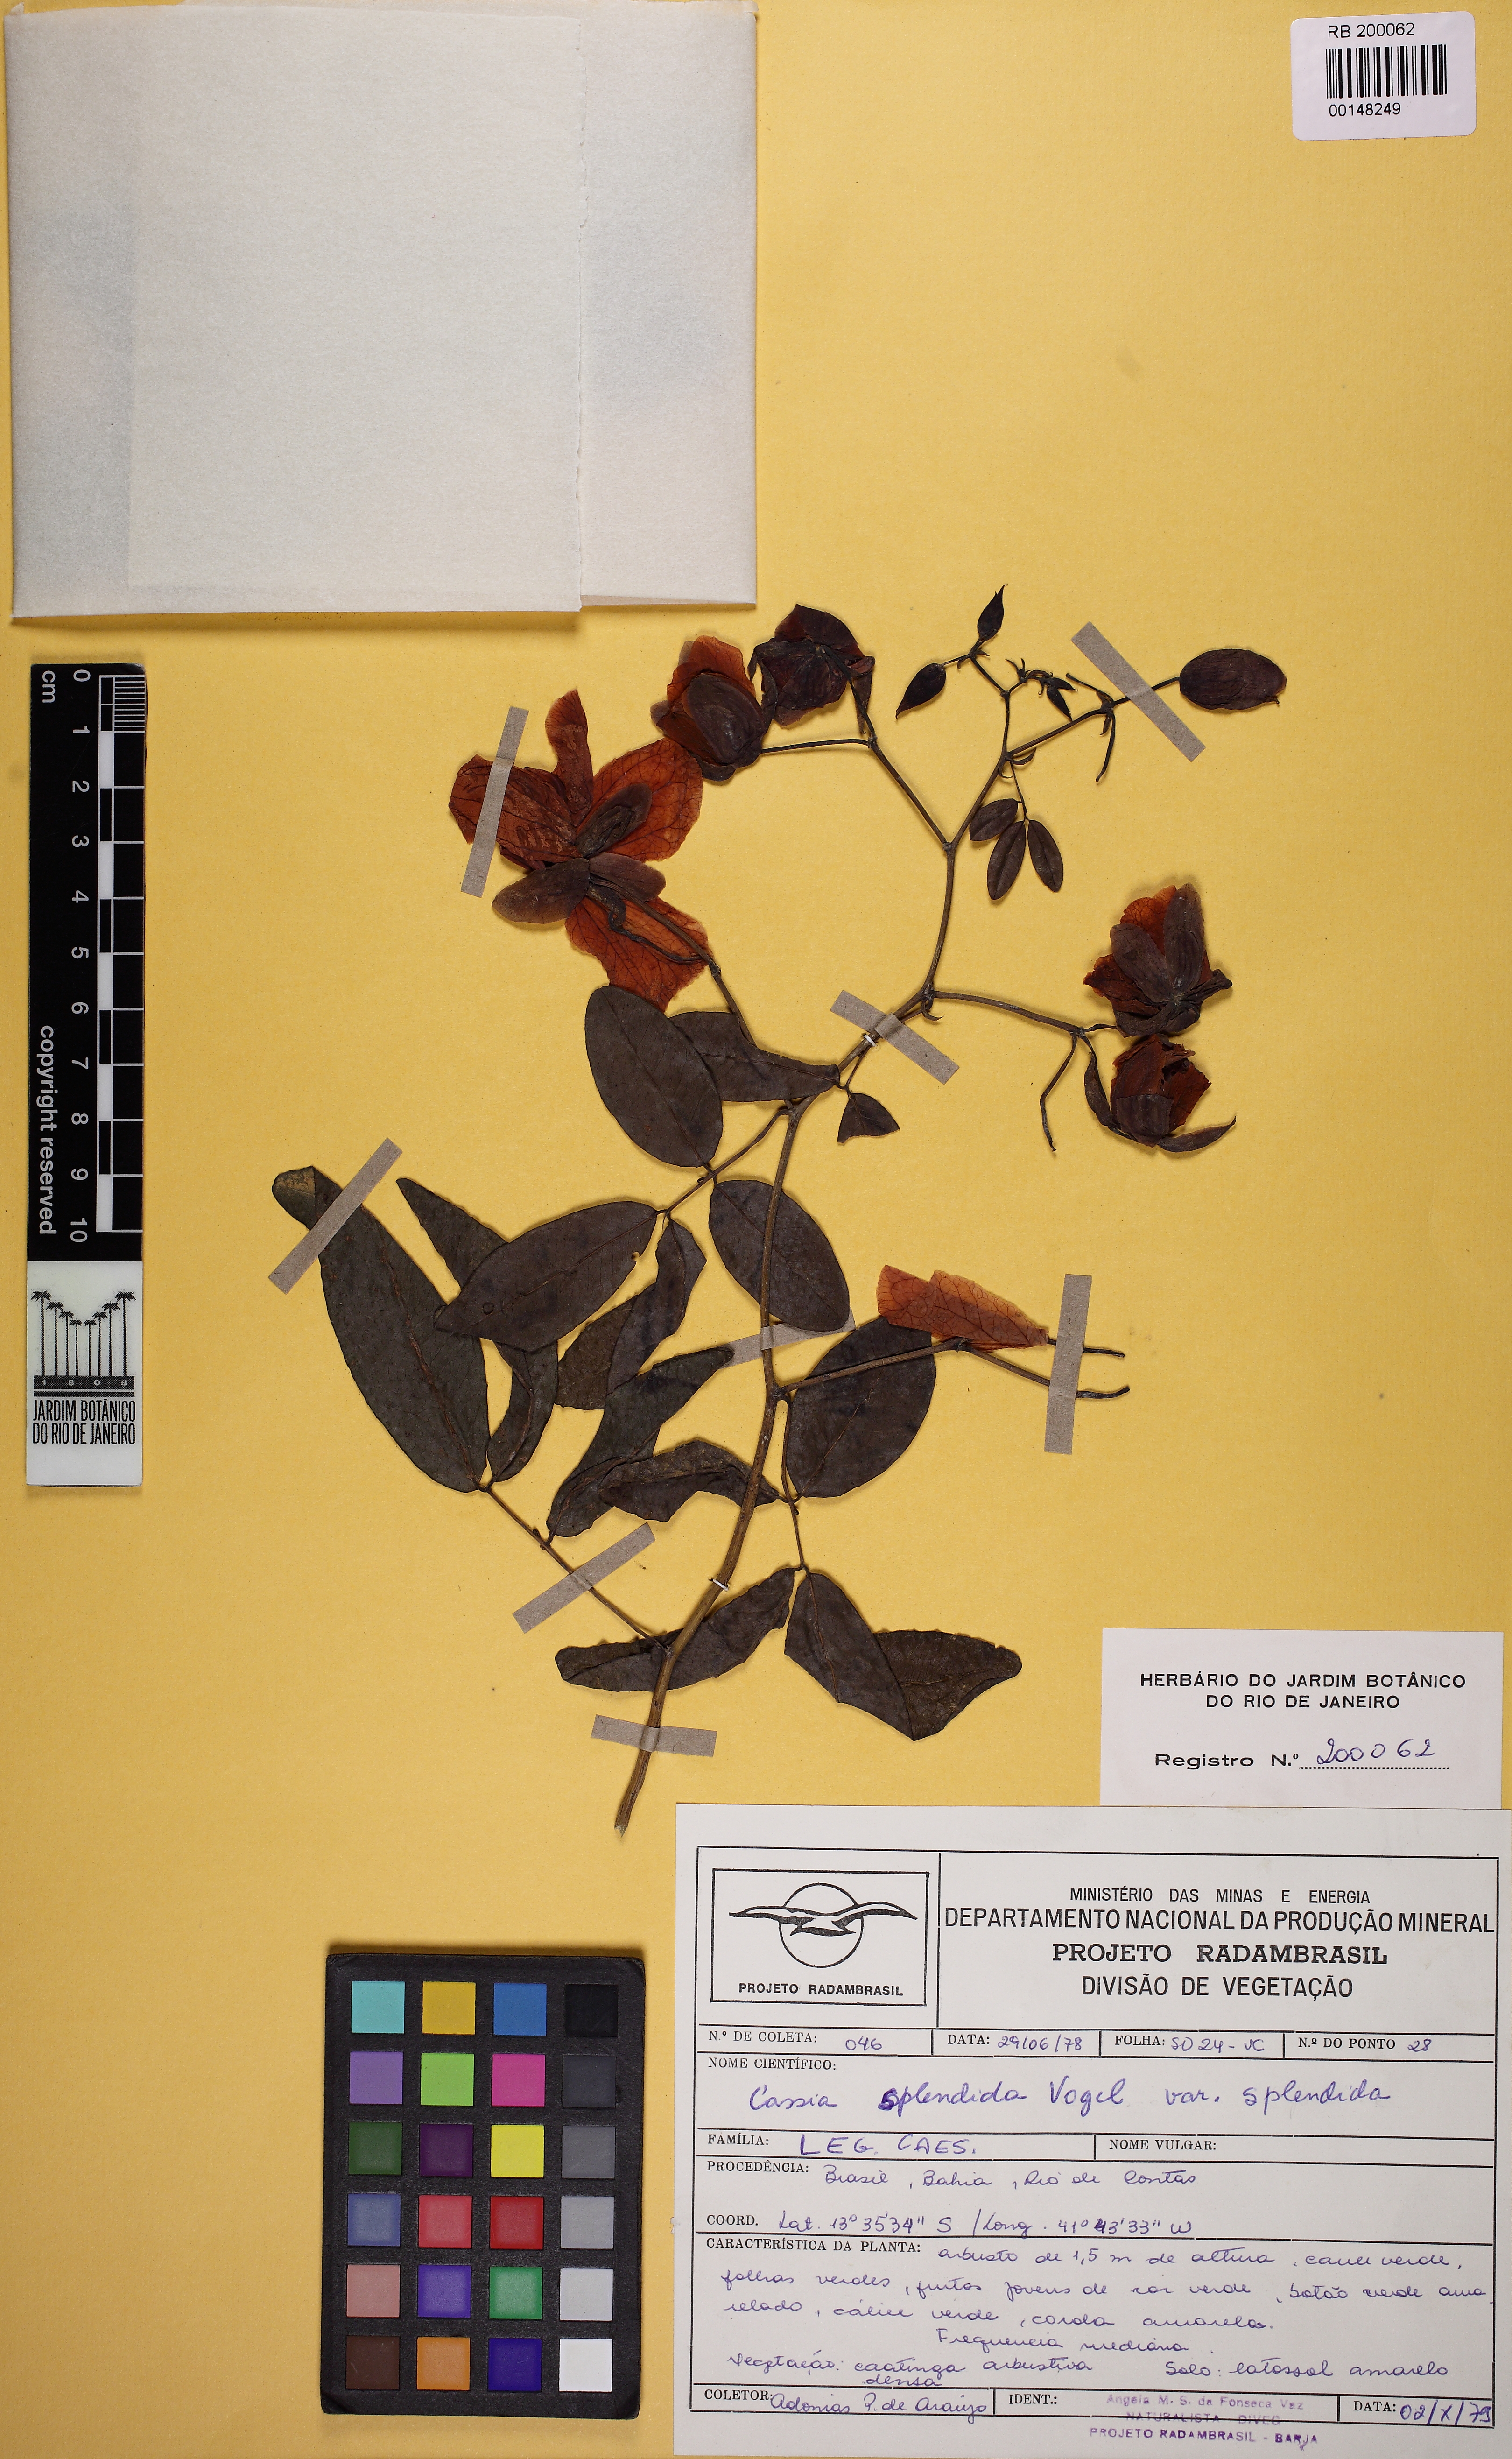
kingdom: Plantae
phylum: Tracheophyta
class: Magnoliopsida
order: Fabales
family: Fabaceae
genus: Senna
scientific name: Senna splendida
